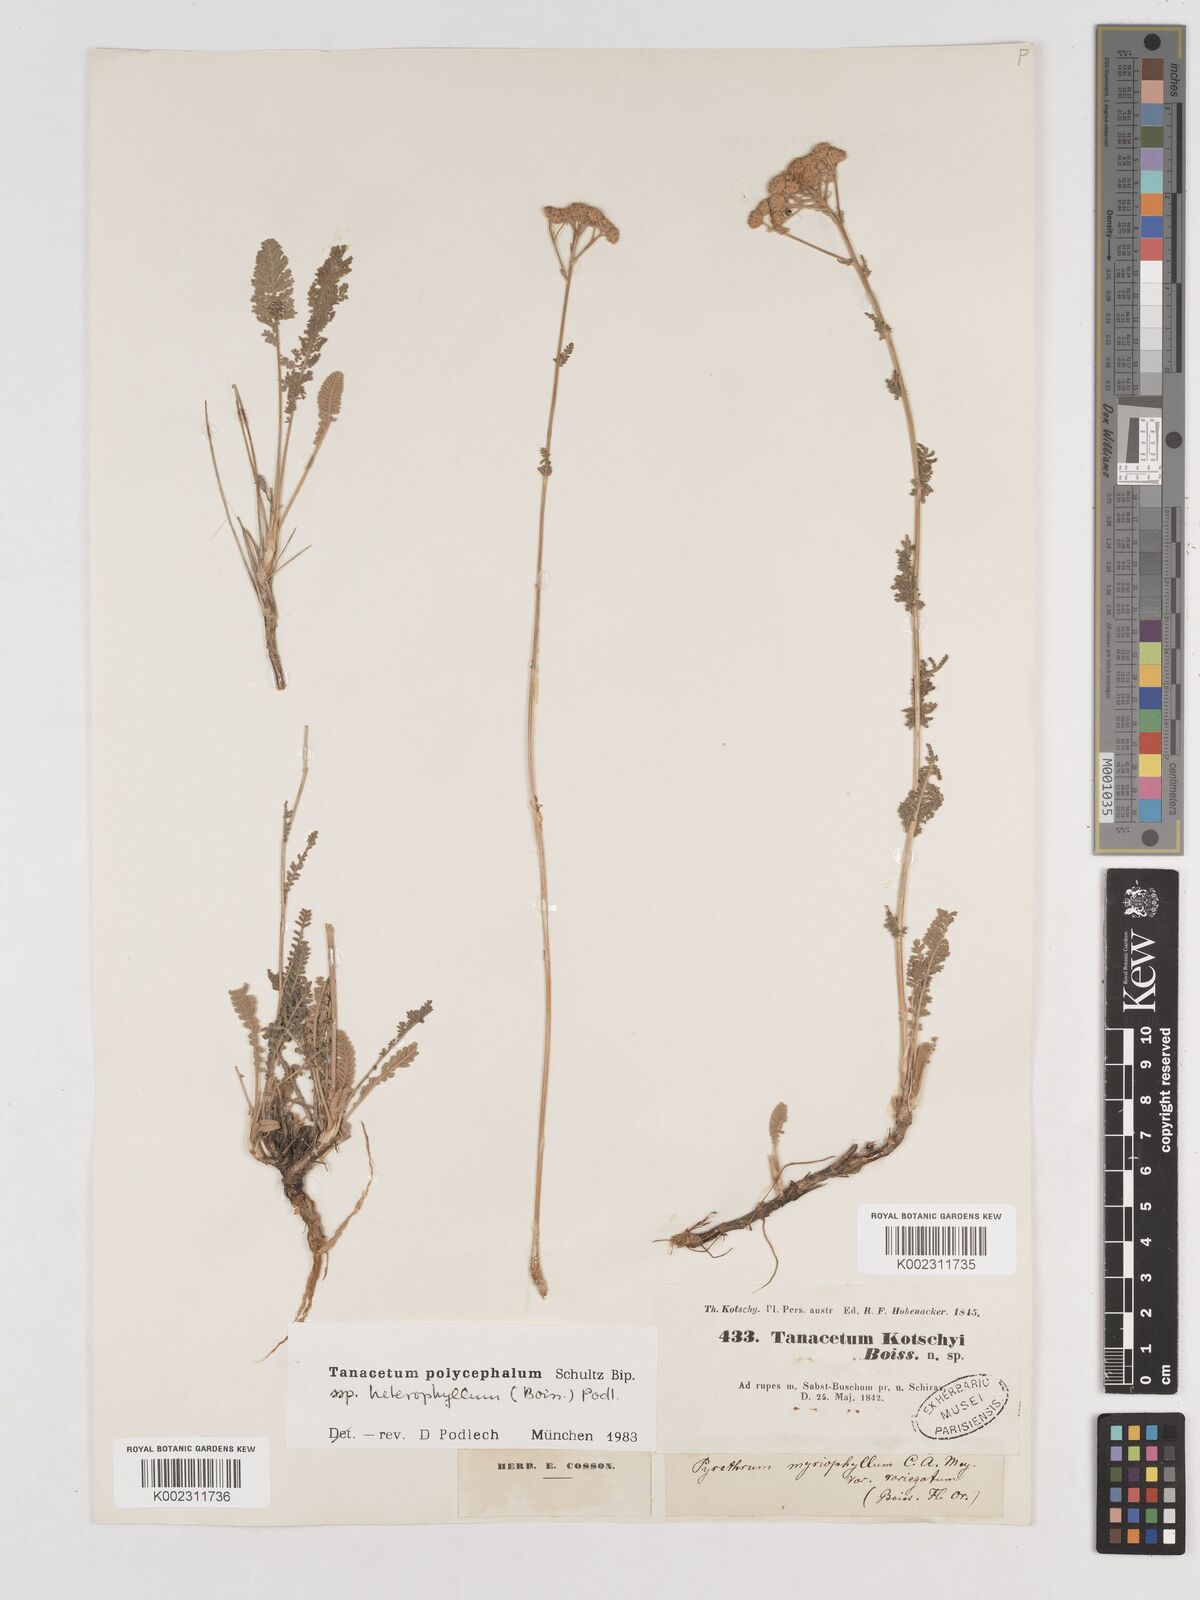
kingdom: Plantae
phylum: Tracheophyta
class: Magnoliopsida
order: Asterales
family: Asteraceae
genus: Tanacetum
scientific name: Tanacetum polycephalum
